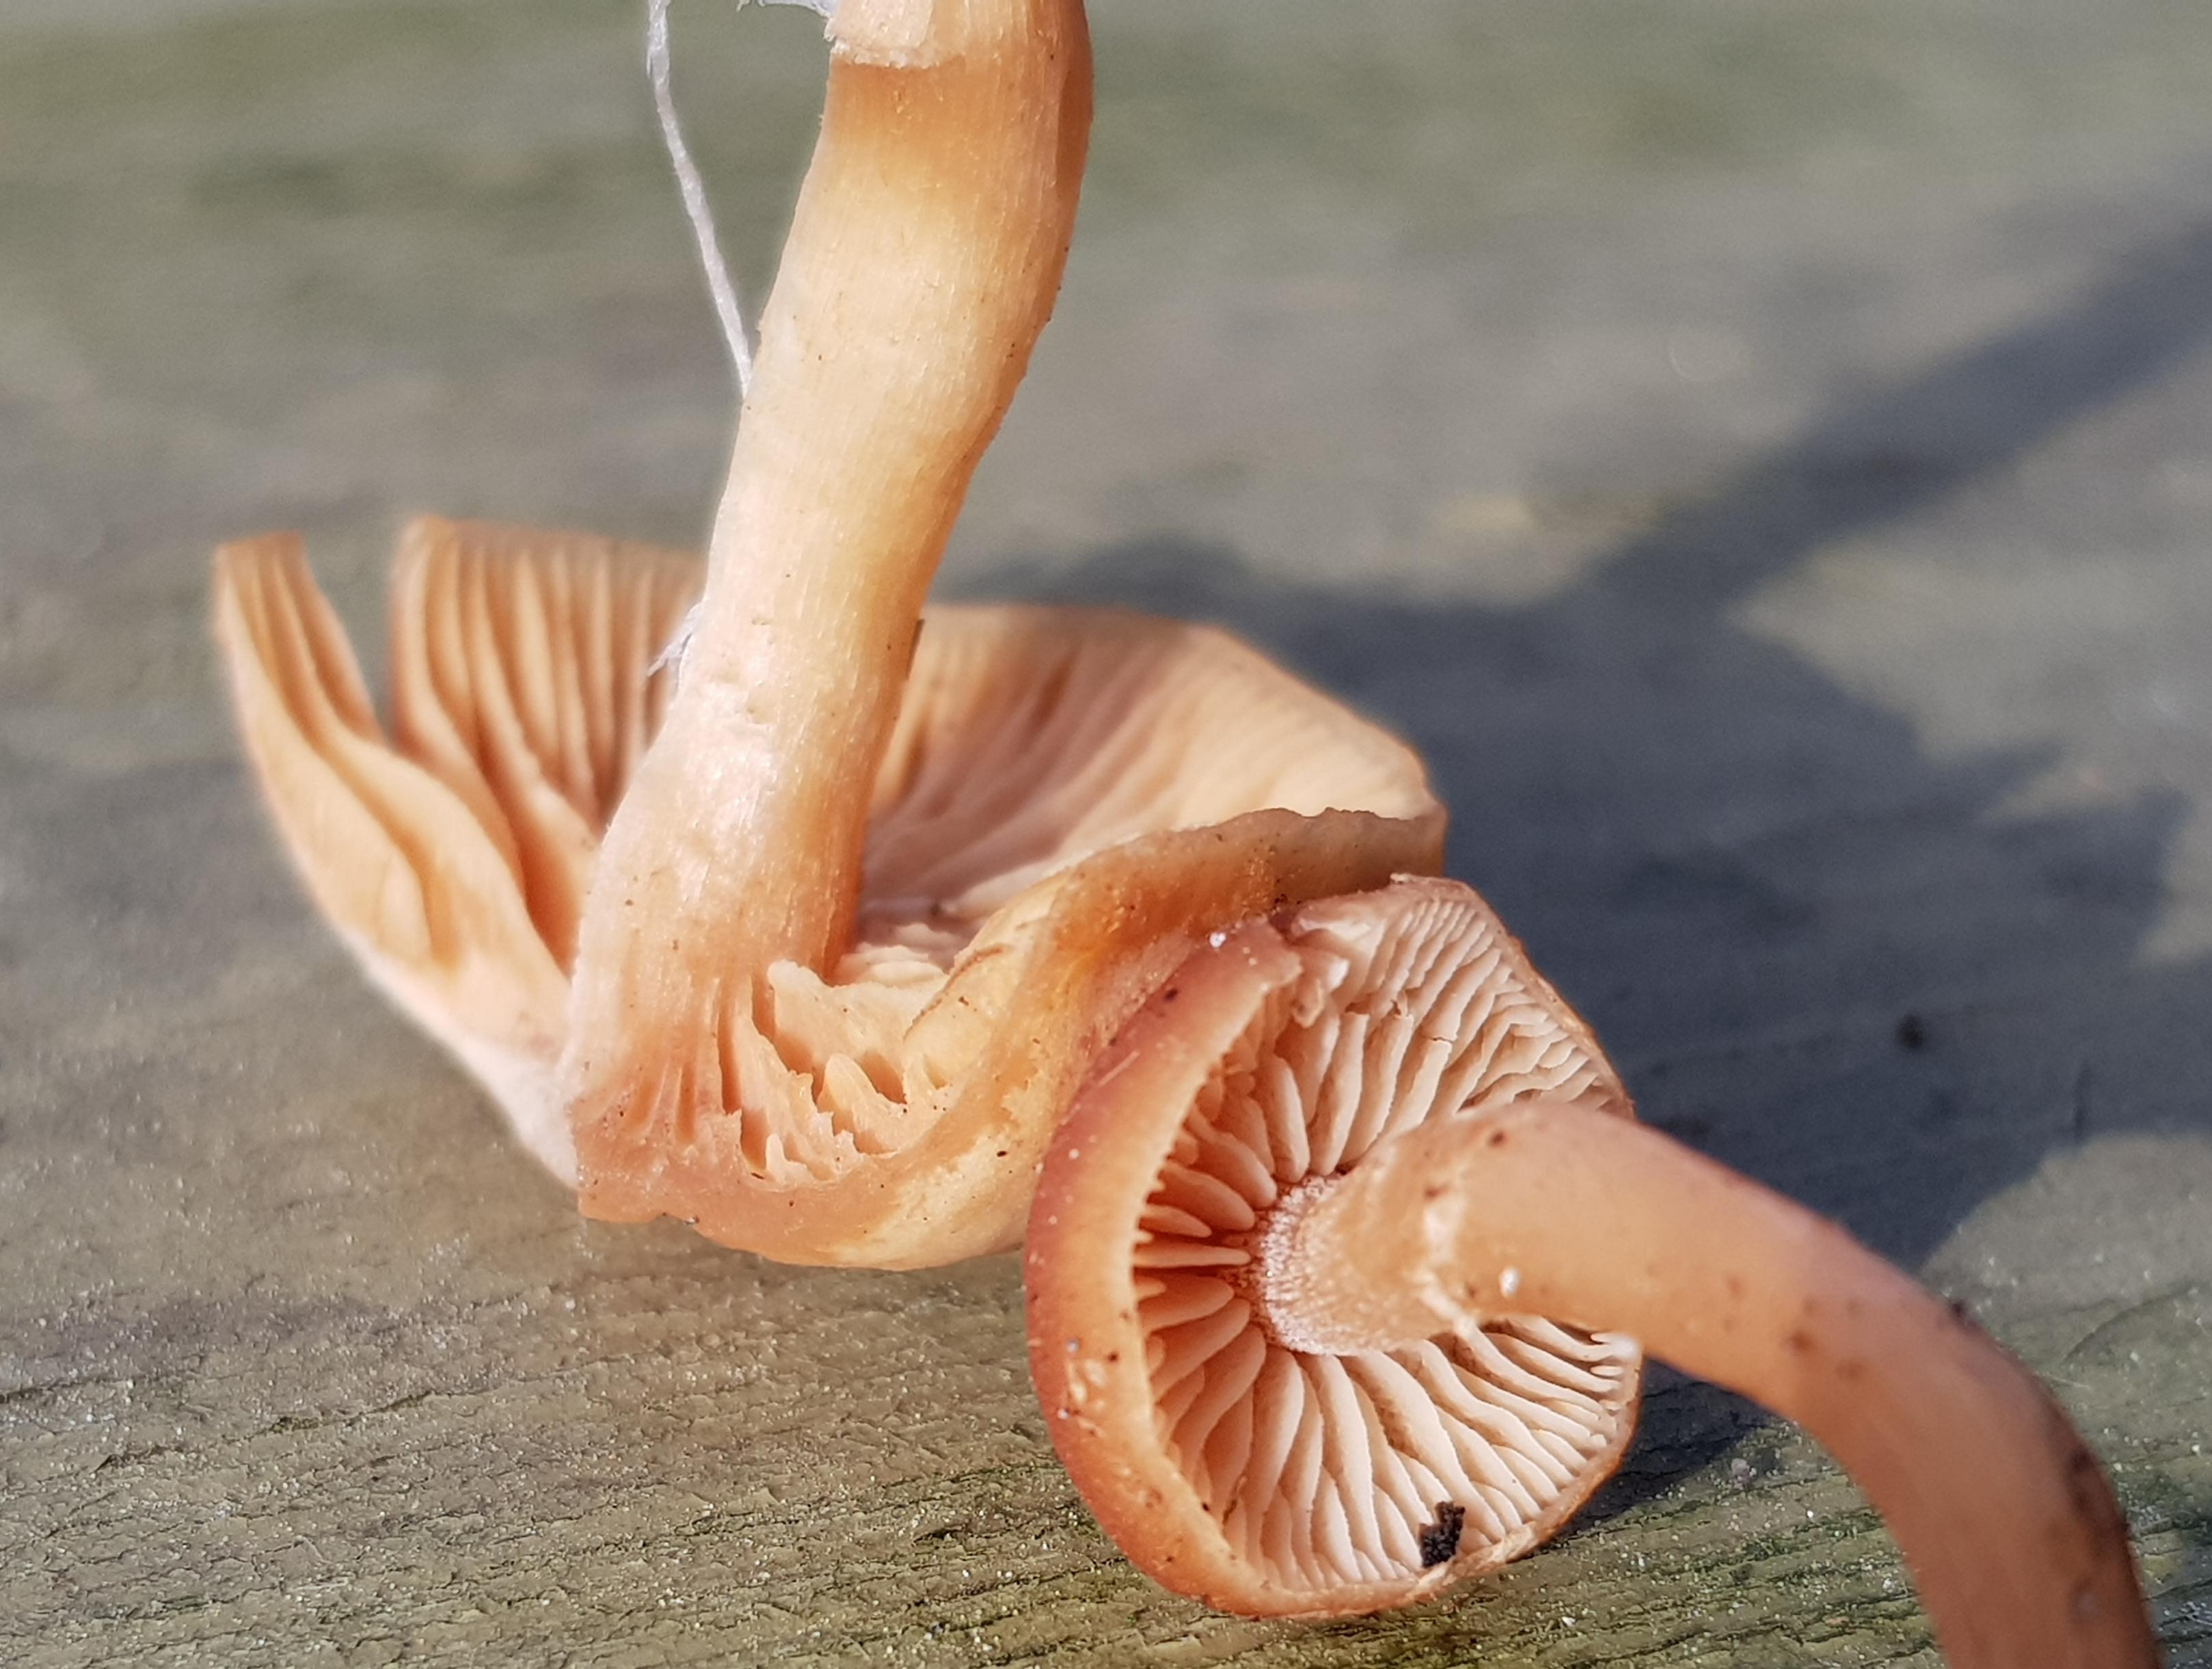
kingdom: Fungi
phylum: Basidiomycota
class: Agaricomycetes
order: Agaricales
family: Tubariaceae
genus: Tubaria
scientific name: Tubaria furfuracea
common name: kliddet fnughat
